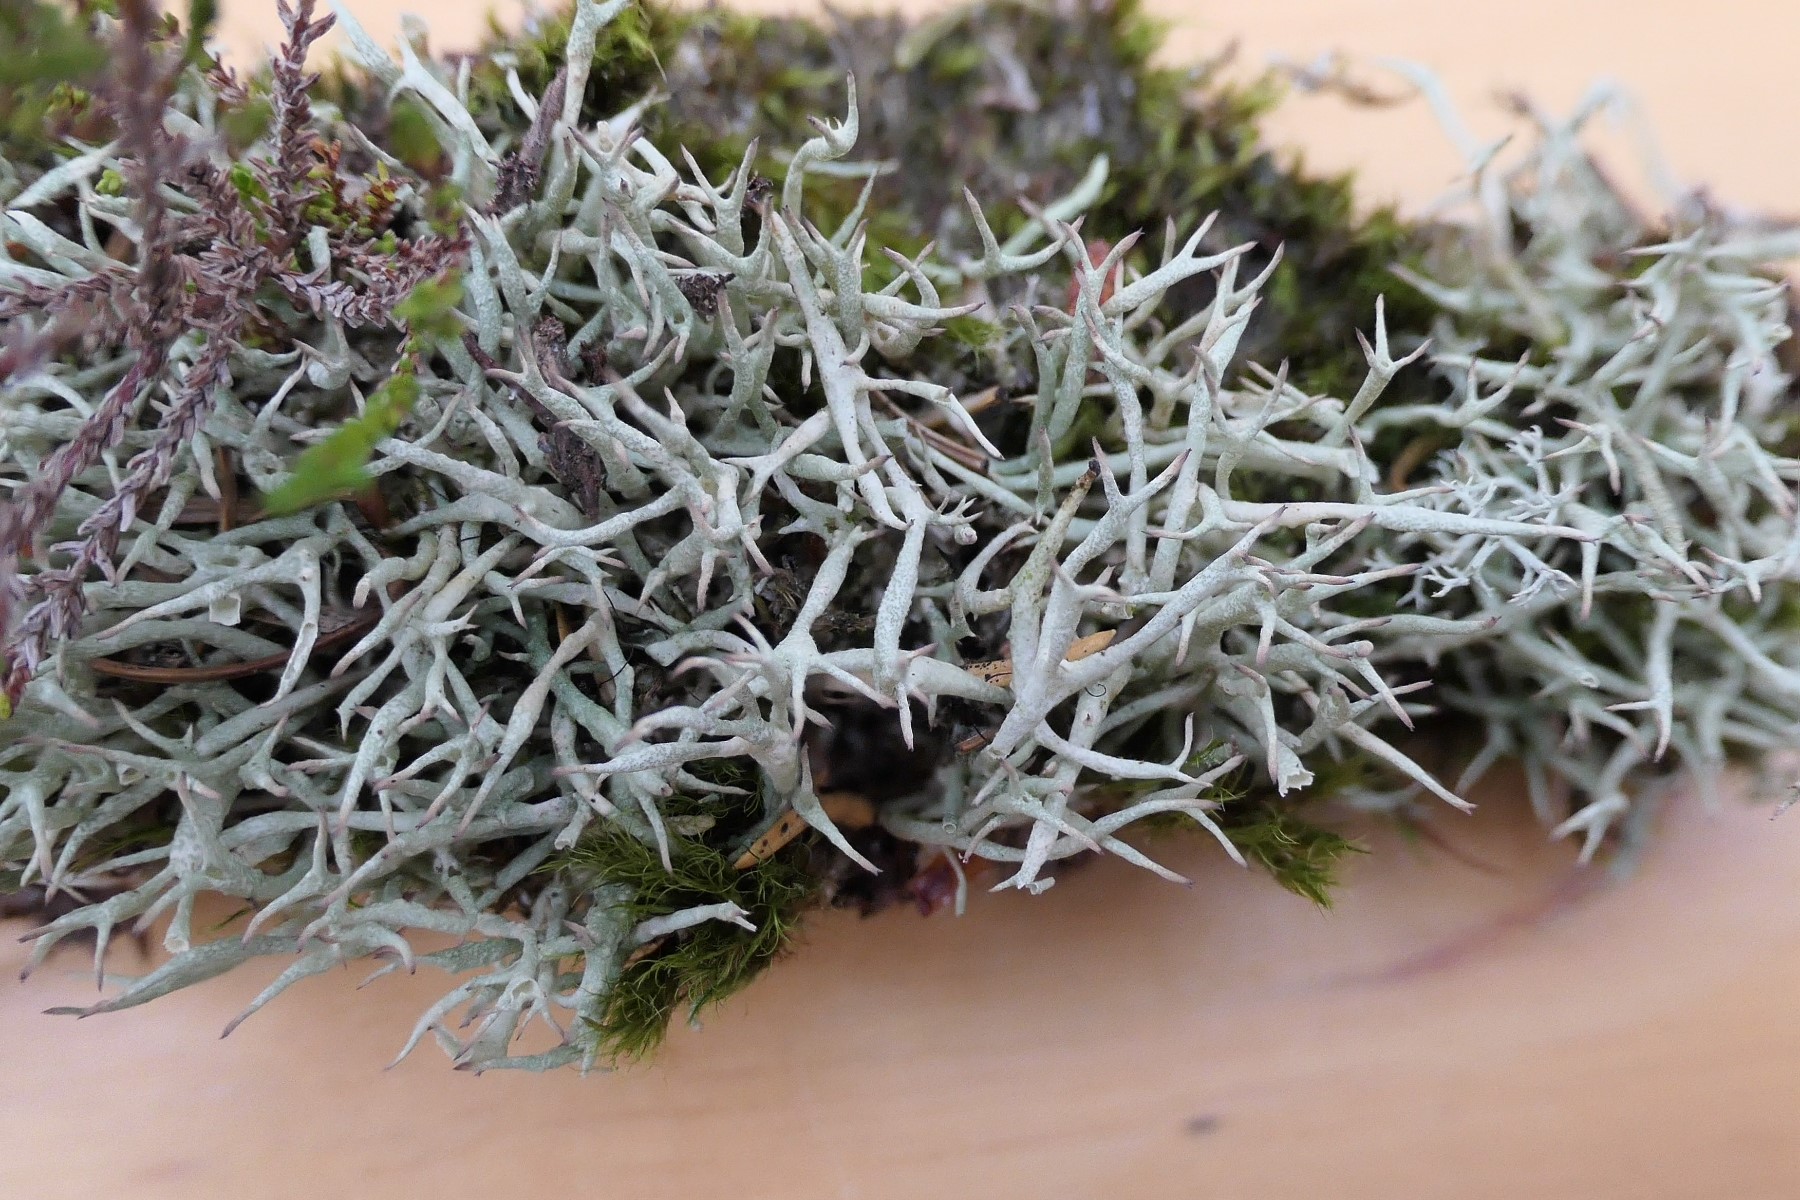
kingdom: Fungi
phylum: Ascomycota
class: Lecanoromycetes
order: Lecanorales
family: Cladoniaceae
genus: Cladonia
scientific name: Cladonia uncialis
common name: Thorn lichen
